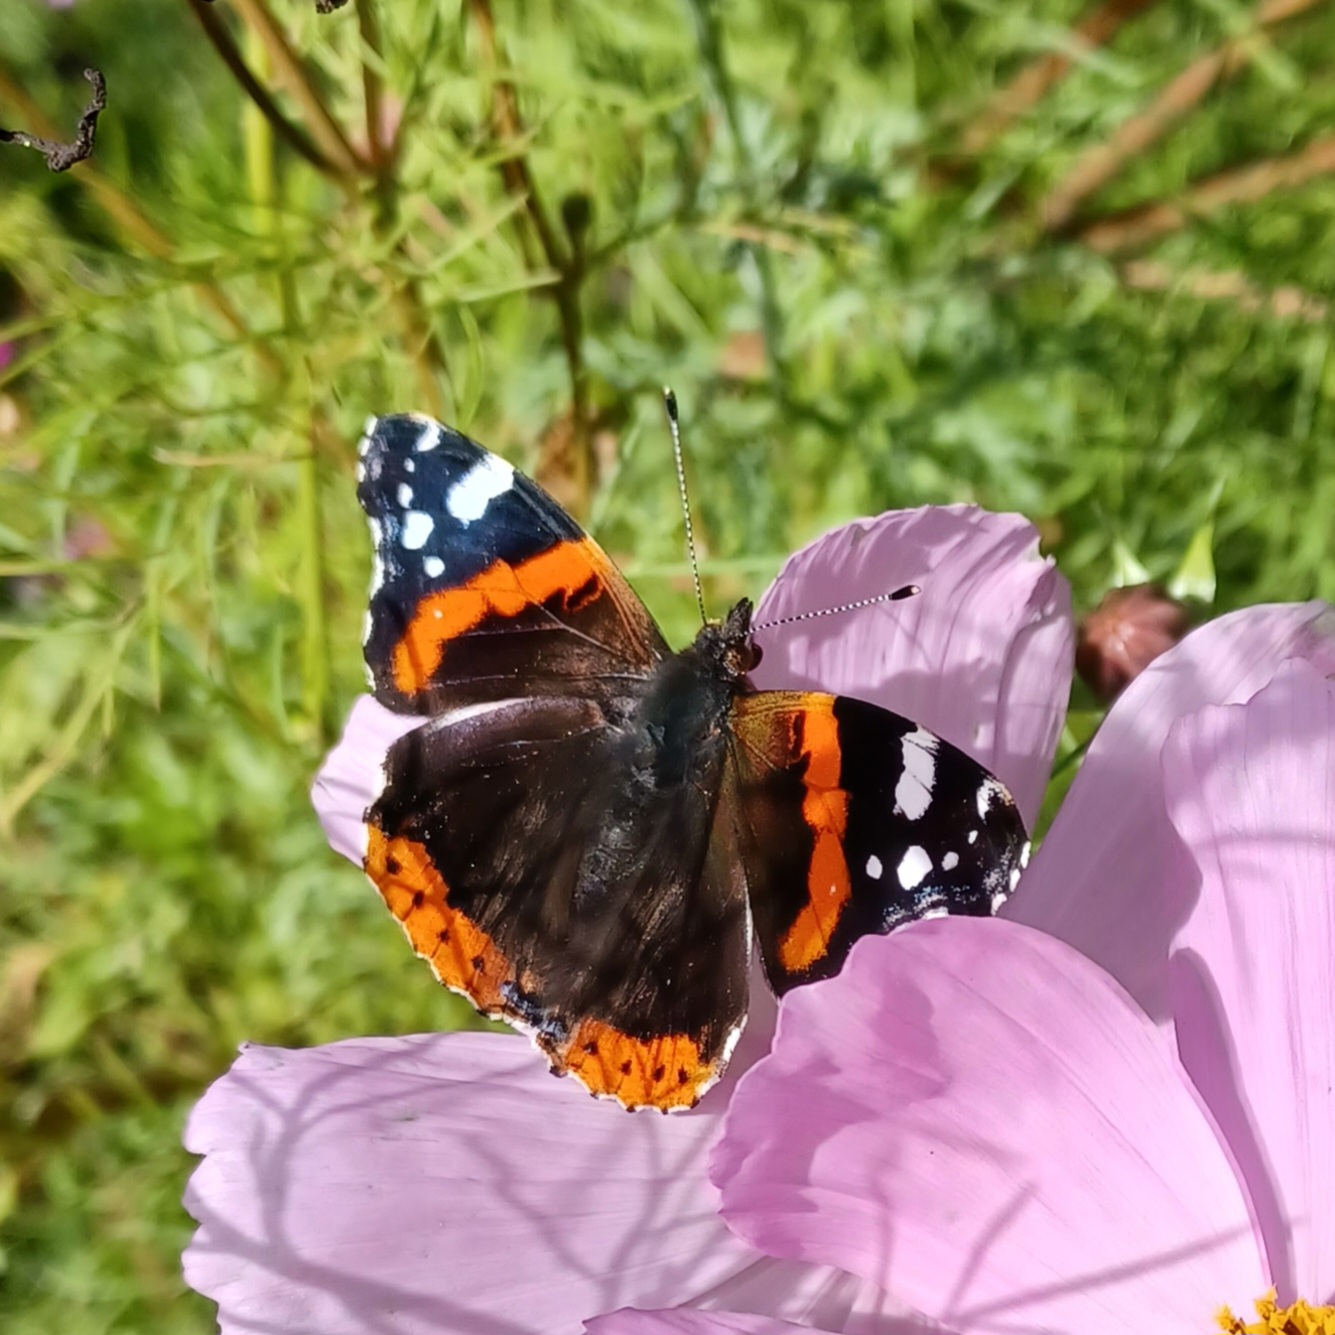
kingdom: Animalia
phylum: Arthropoda
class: Insecta
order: Lepidoptera
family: Nymphalidae
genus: Vanessa
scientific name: Vanessa atalanta
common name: Admiral
